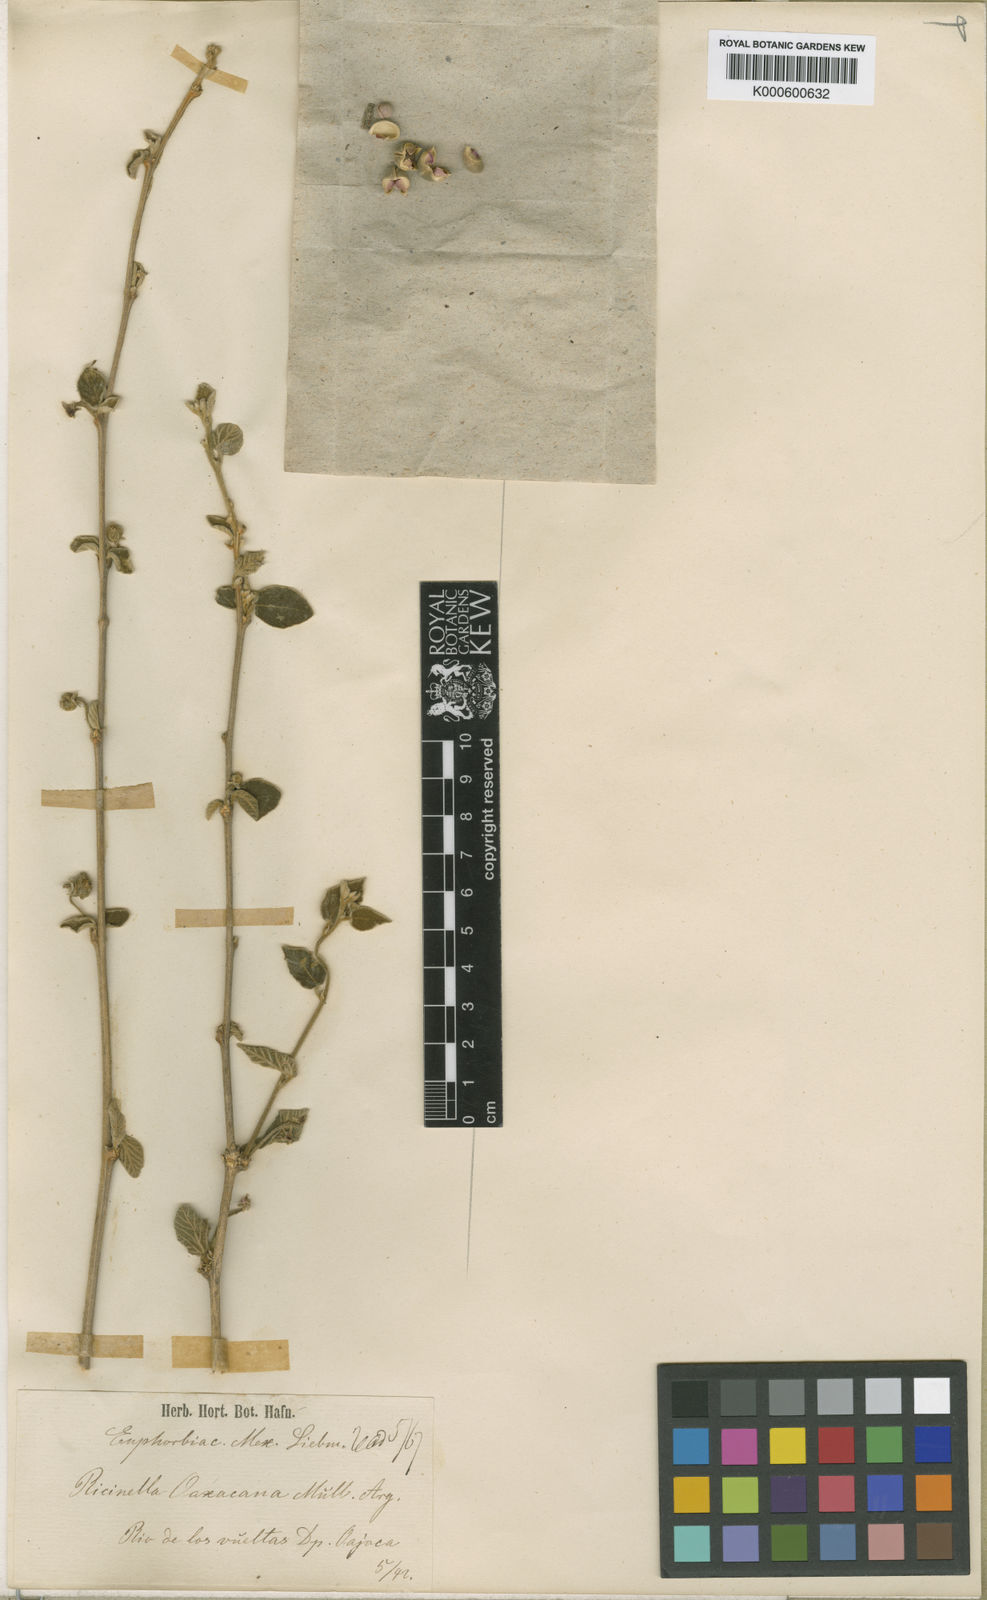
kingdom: Plantae
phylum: Tracheophyta
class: Magnoliopsida
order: Malpighiales
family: Euphorbiaceae
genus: Adelia
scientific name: Adelia
